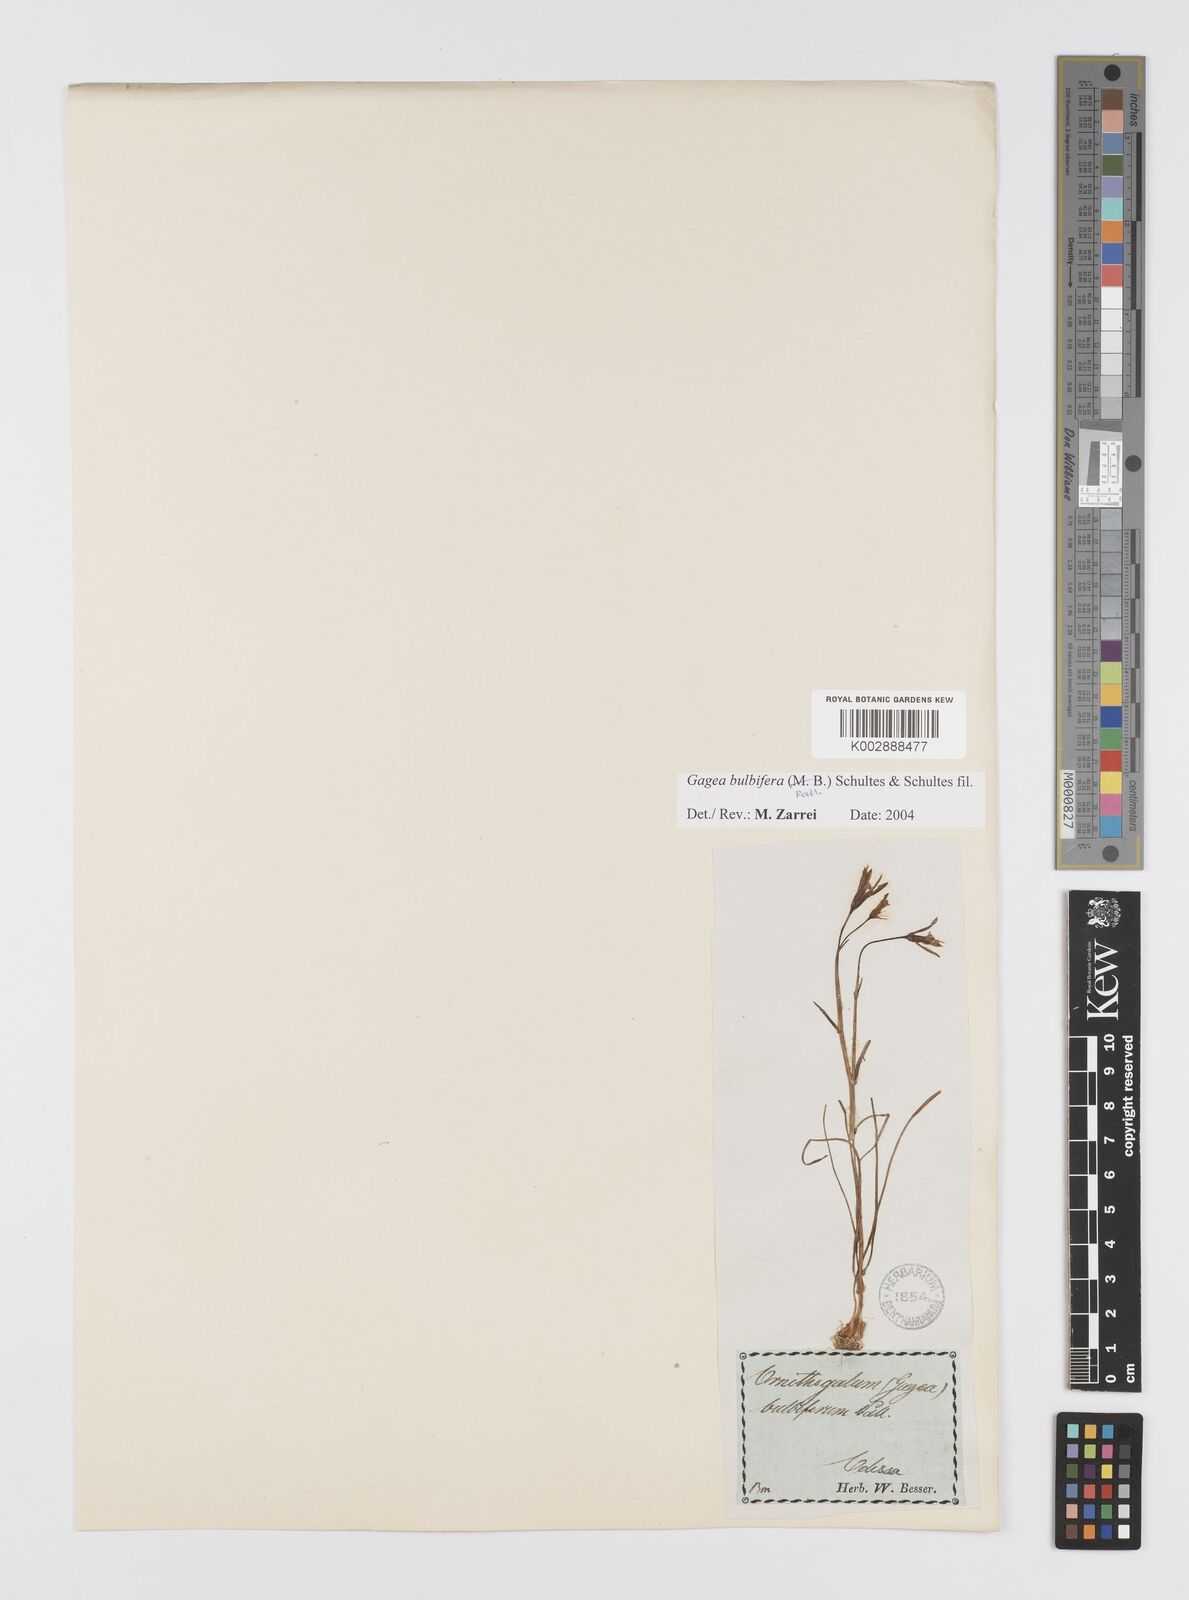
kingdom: Plantae
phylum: Tracheophyta
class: Liliopsida
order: Liliales
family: Liliaceae
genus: Gagea
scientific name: Gagea bulbifera
